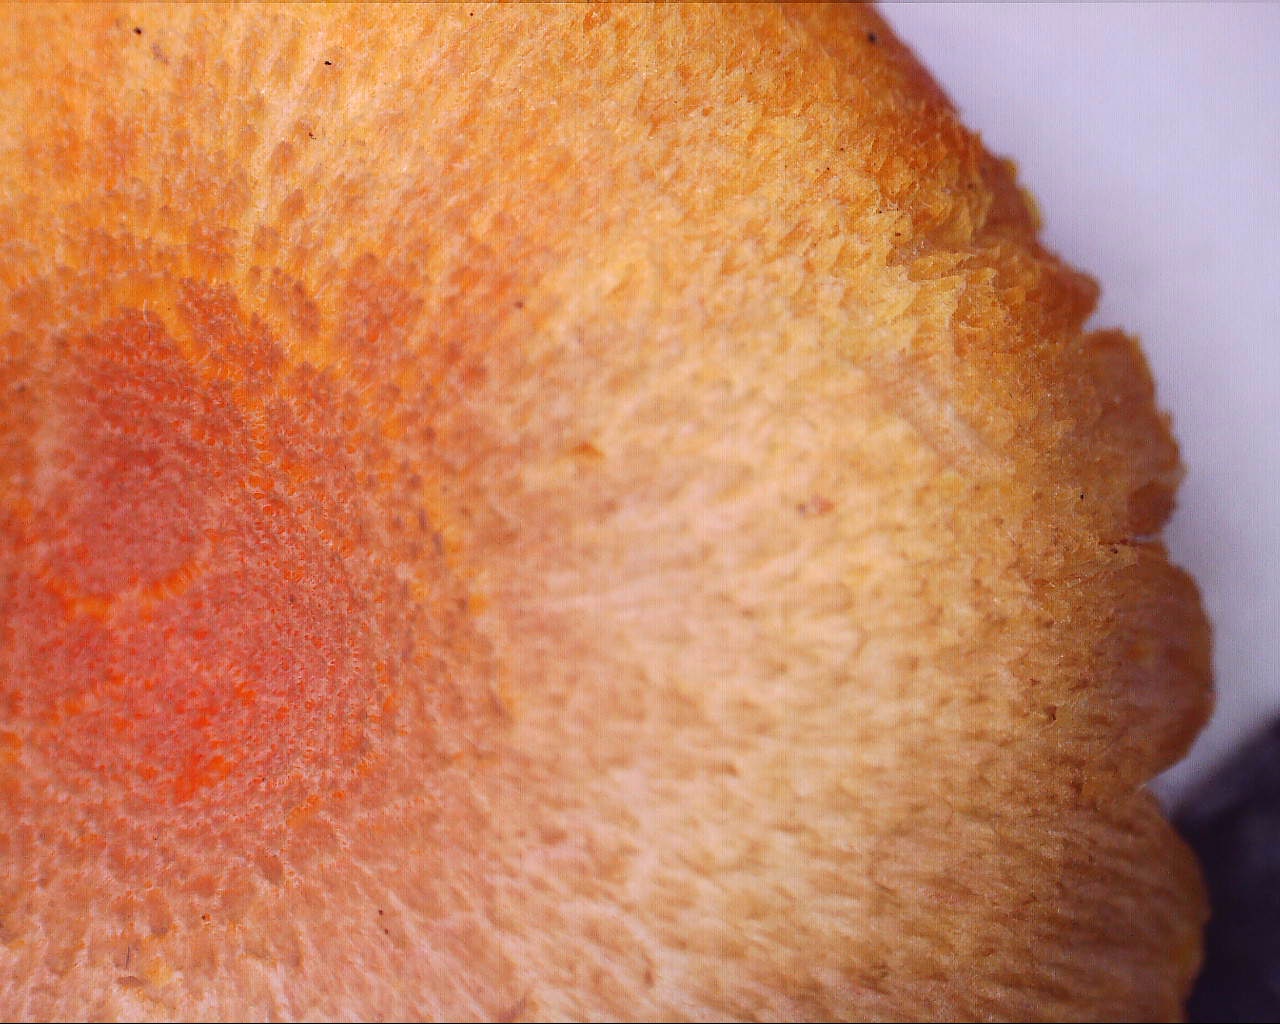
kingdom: Fungi
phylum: Basidiomycota
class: Agaricomycetes
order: Agaricales
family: Hygrophoraceae
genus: Hygrocybe
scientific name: Hygrocybe miniata
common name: mønje-vokshat
